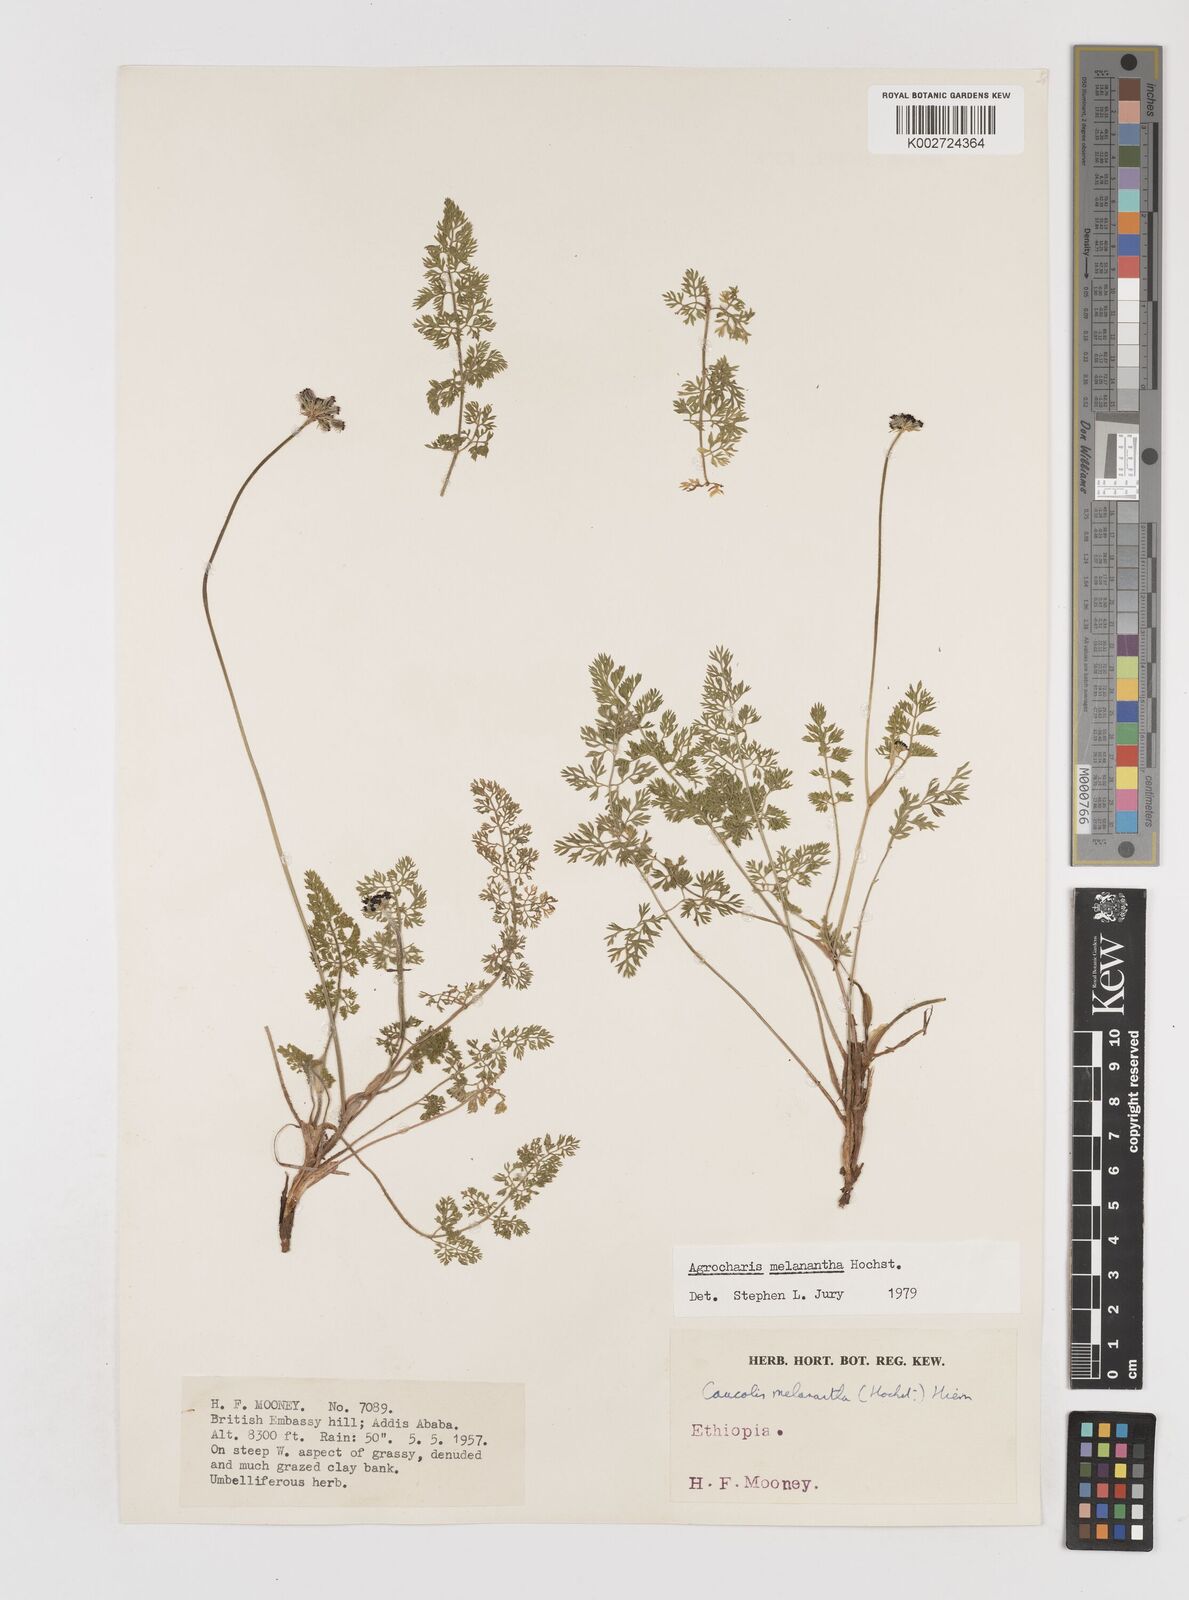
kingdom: Plantae
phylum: Tracheophyta
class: Magnoliopsida
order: Apiales
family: Apiaceae
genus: Daucus
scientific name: Daucus melananthus
